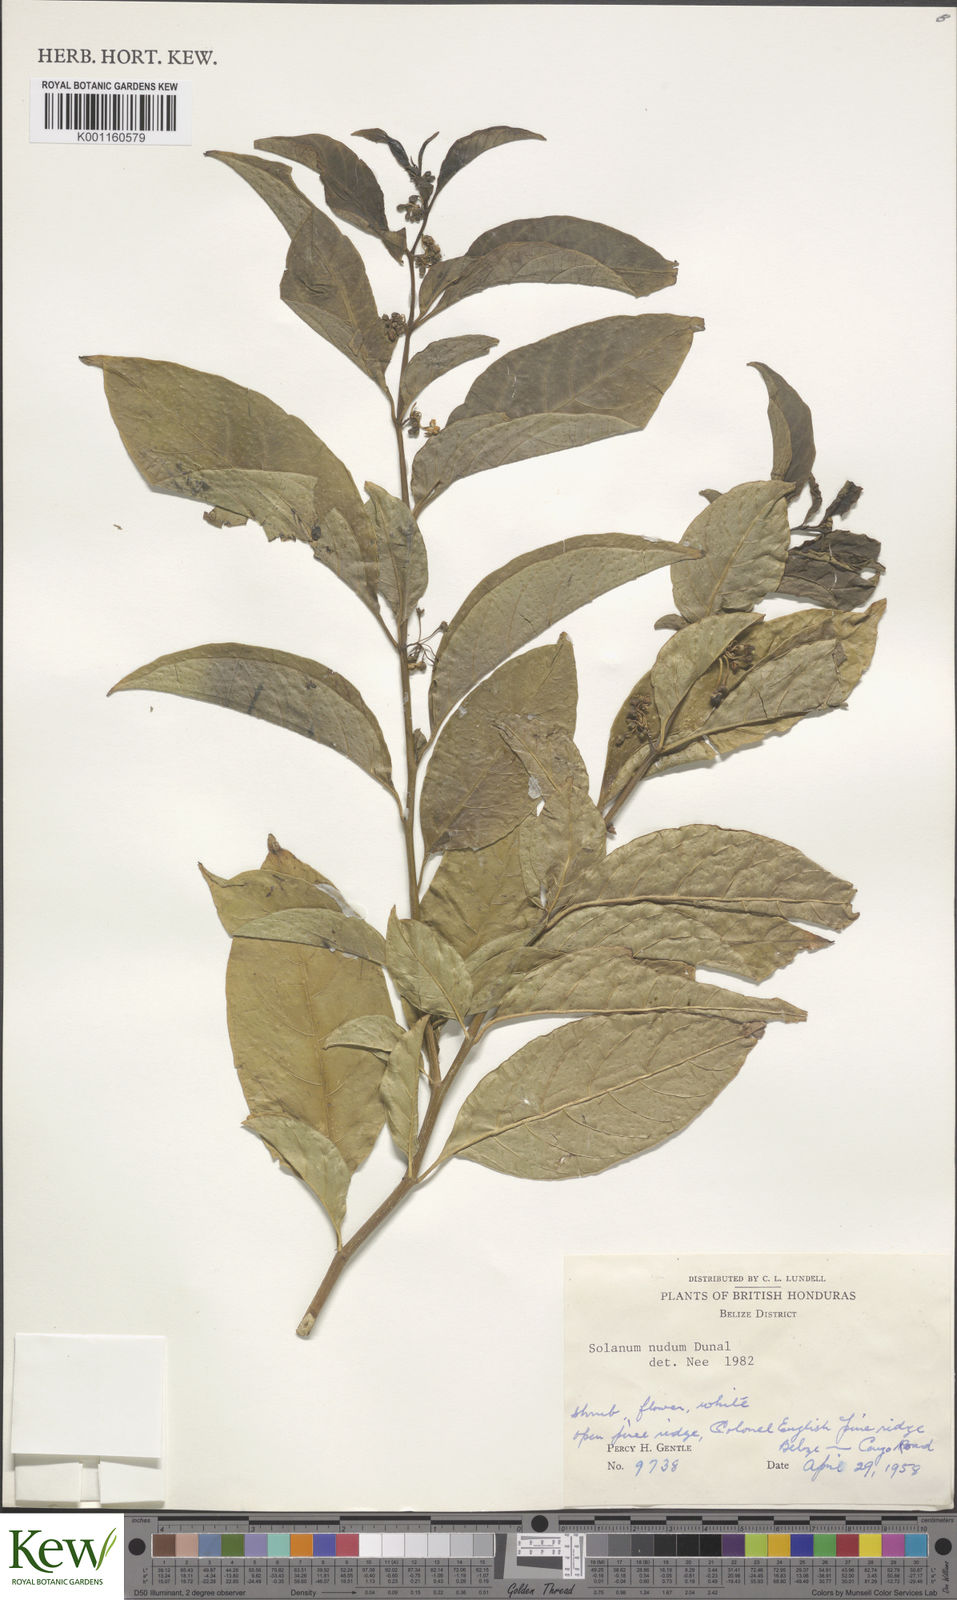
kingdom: Plantae
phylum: Tracheophyta
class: Magnoliopsida
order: Solanales
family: Solanaceae
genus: Solanum
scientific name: Solanum nudum
